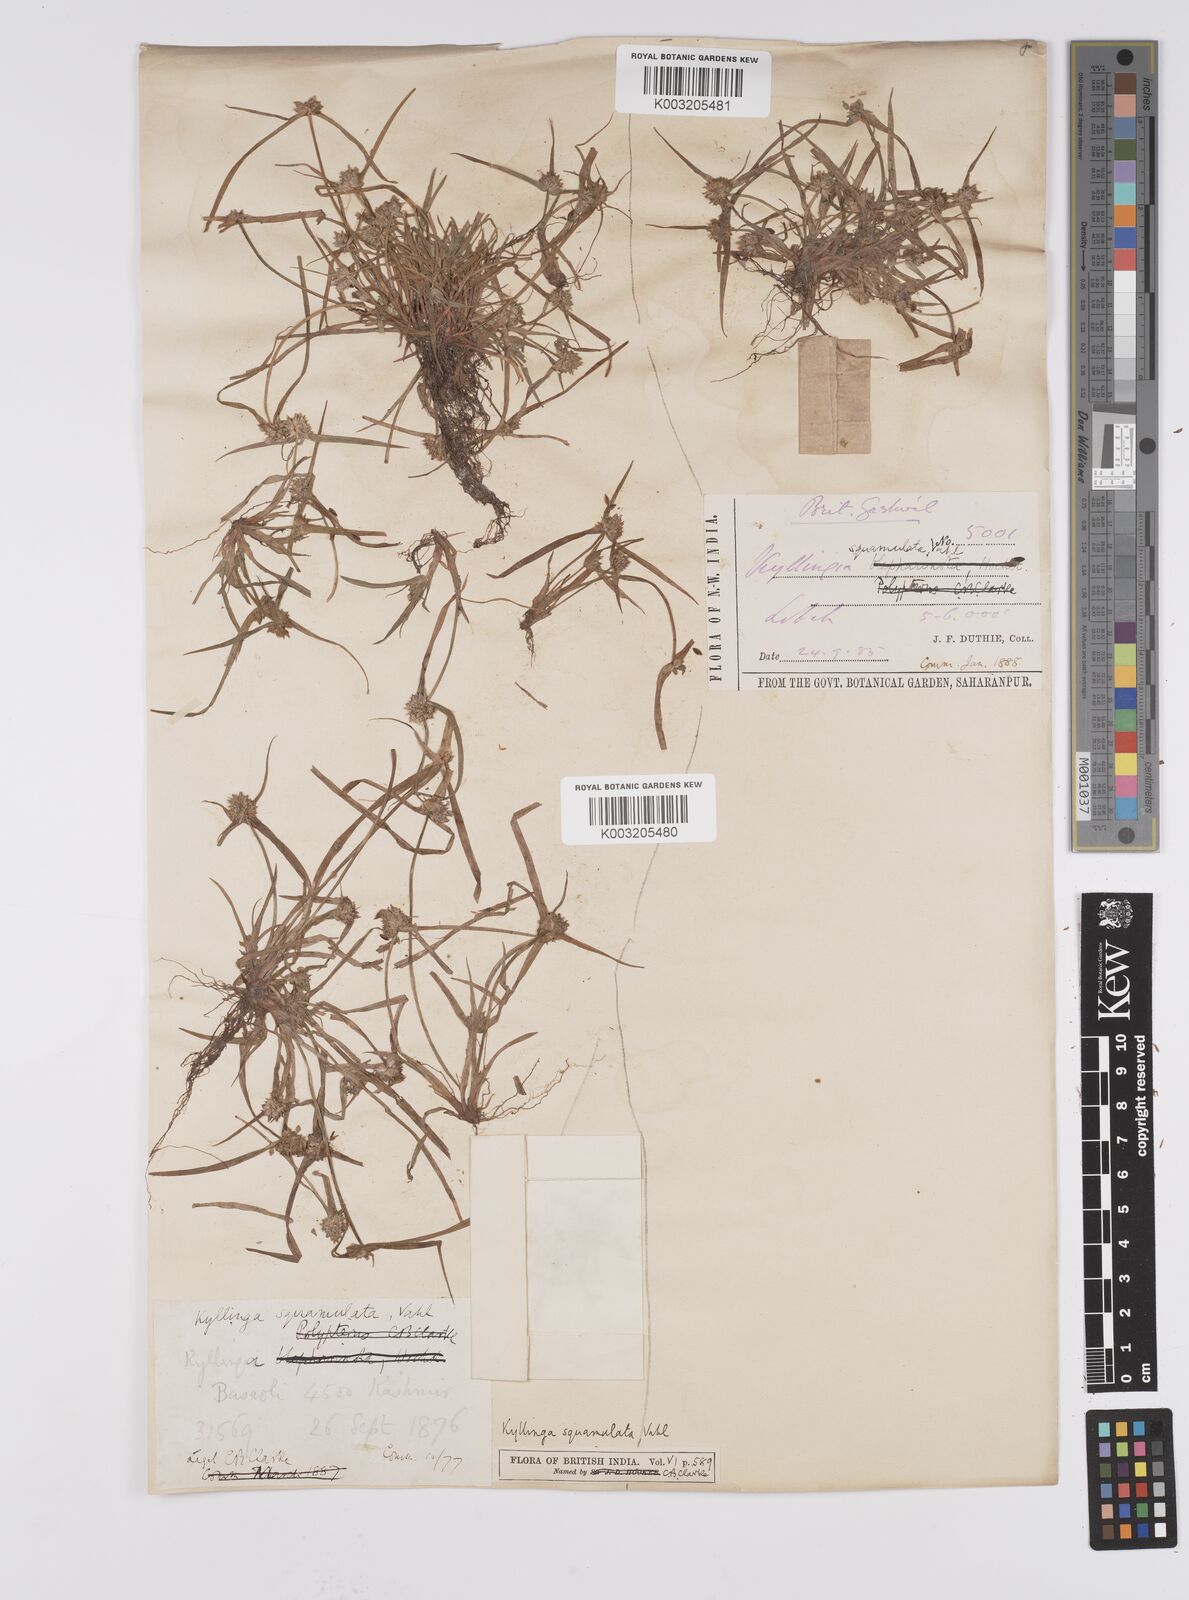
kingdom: Plantae
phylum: Tracheophyta
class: Liliopsida
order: Poales
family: Cyperaceae
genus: Cyperus
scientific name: Cyperus
